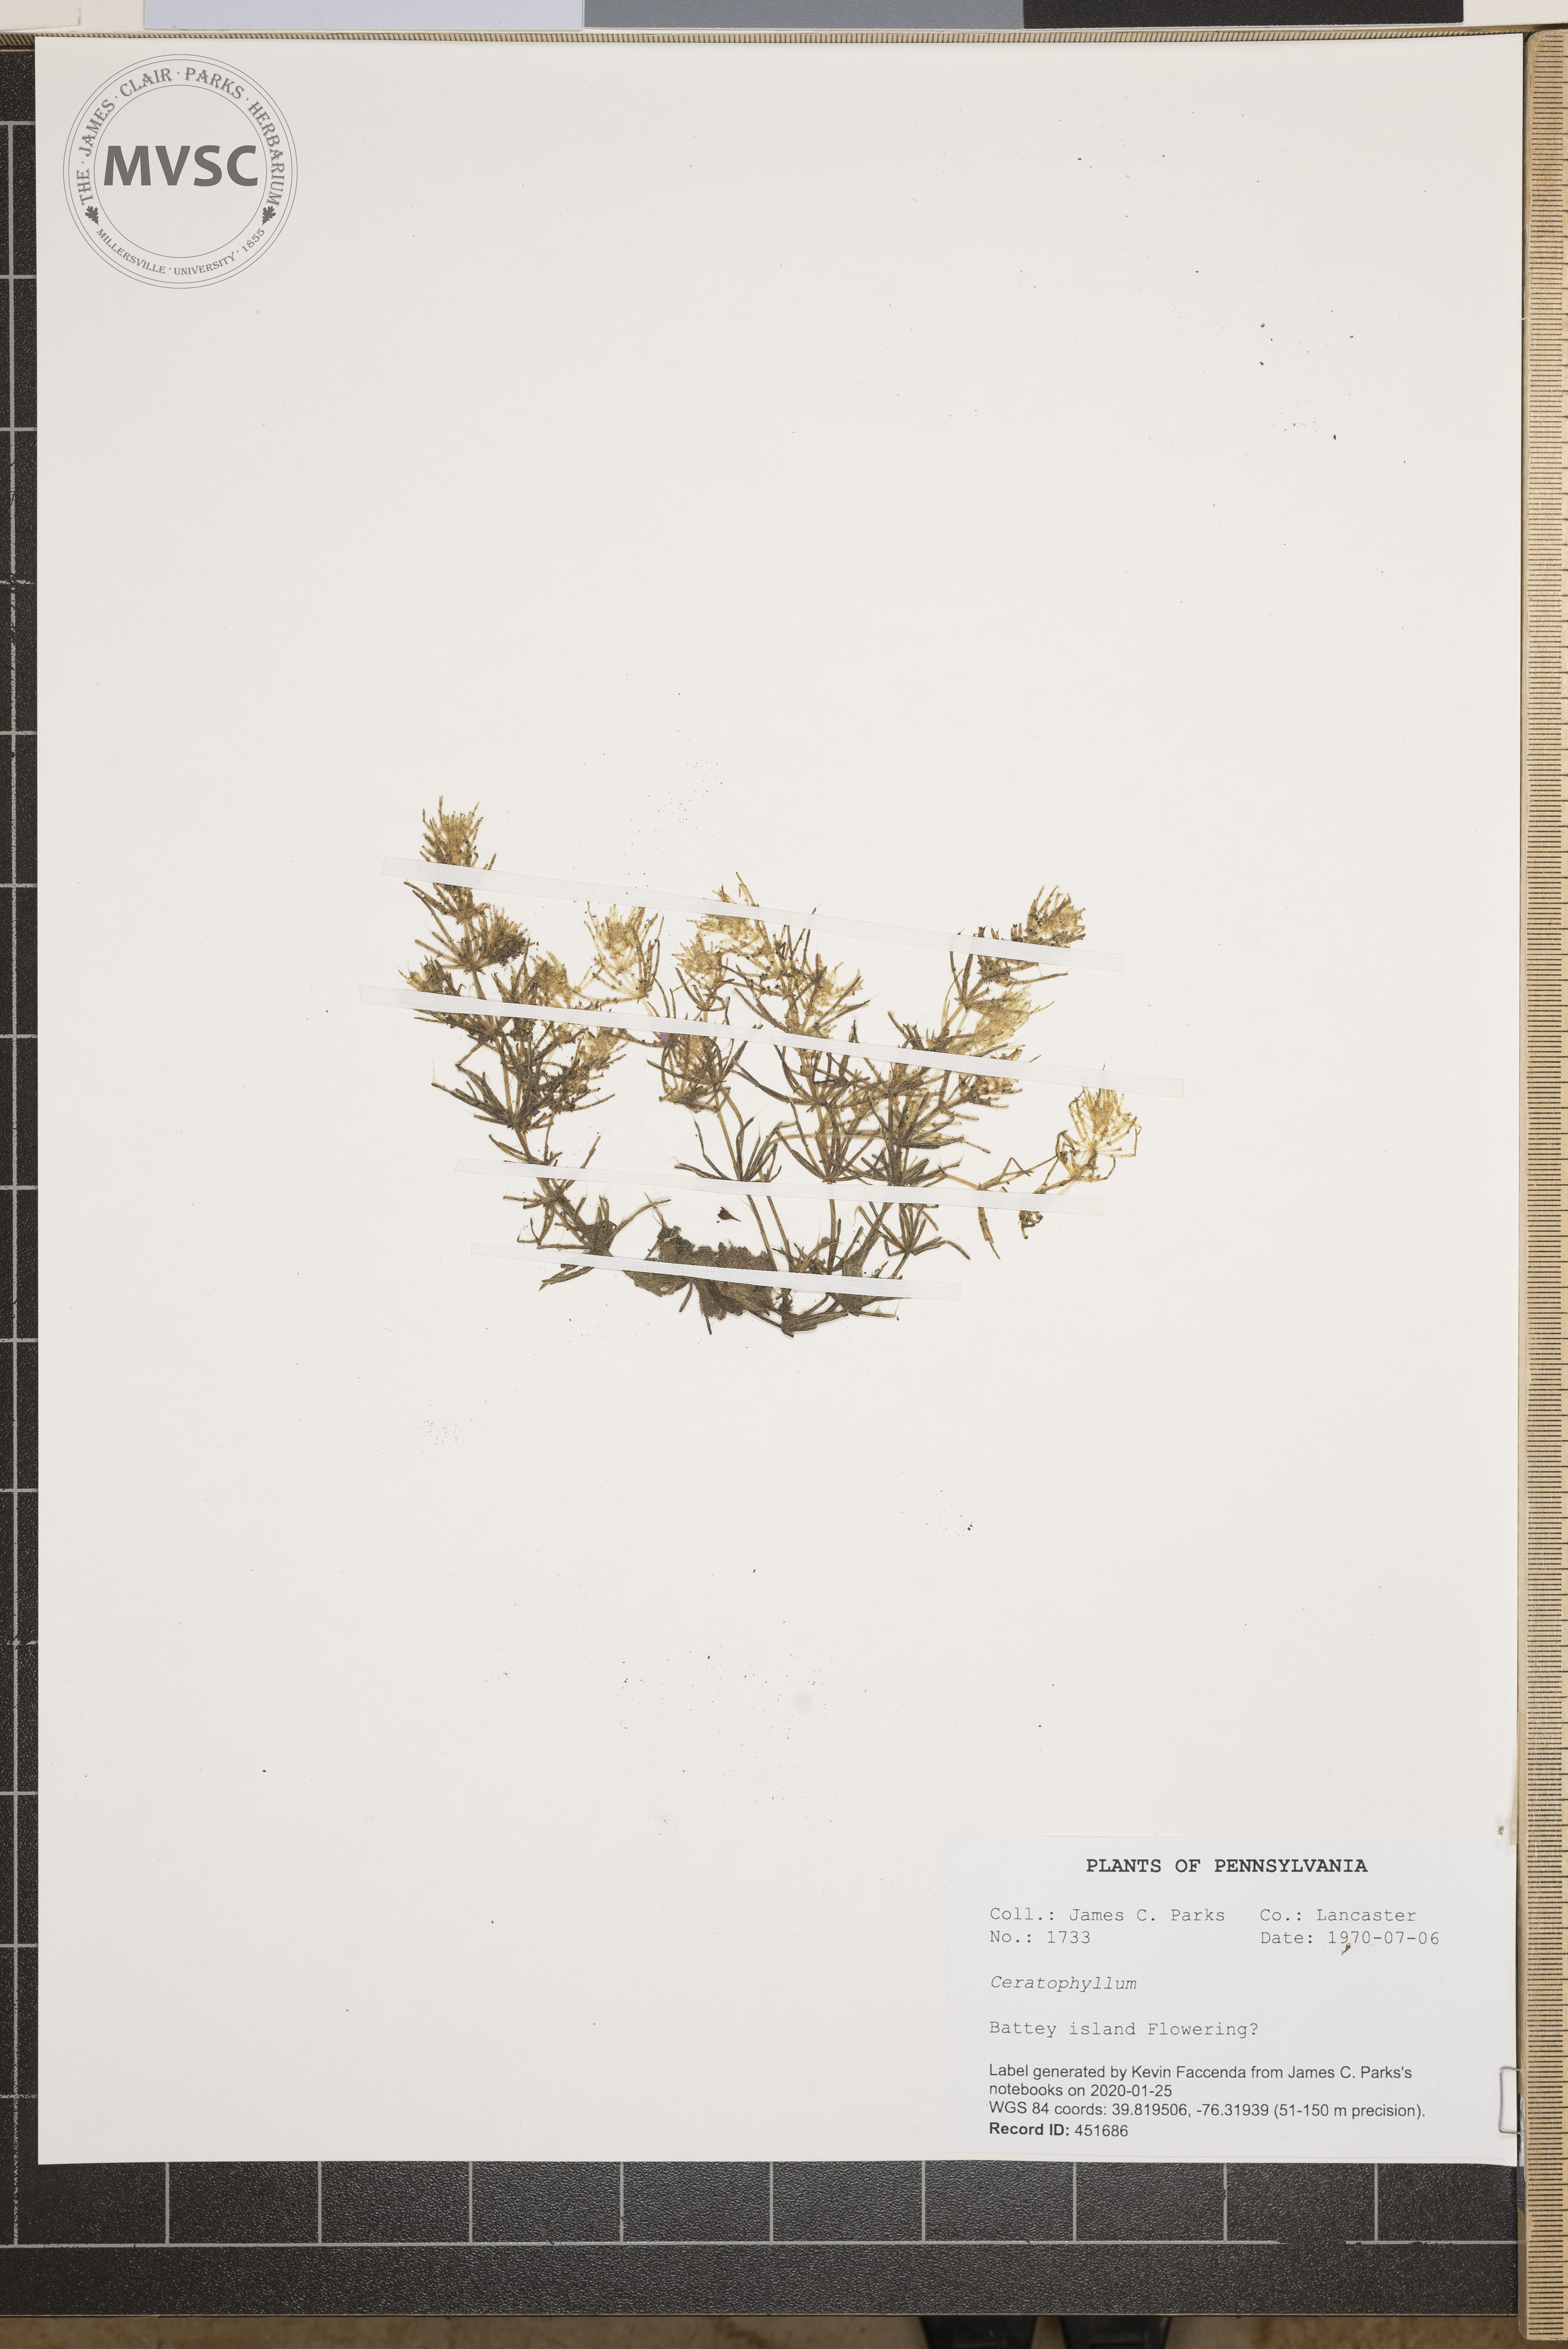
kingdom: Plantae
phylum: Tracheophyta
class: Magnoliopsida
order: Ceratophyllales
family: Ceratophyllaceae
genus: Ceratophyllum
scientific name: Ceratophyllum
